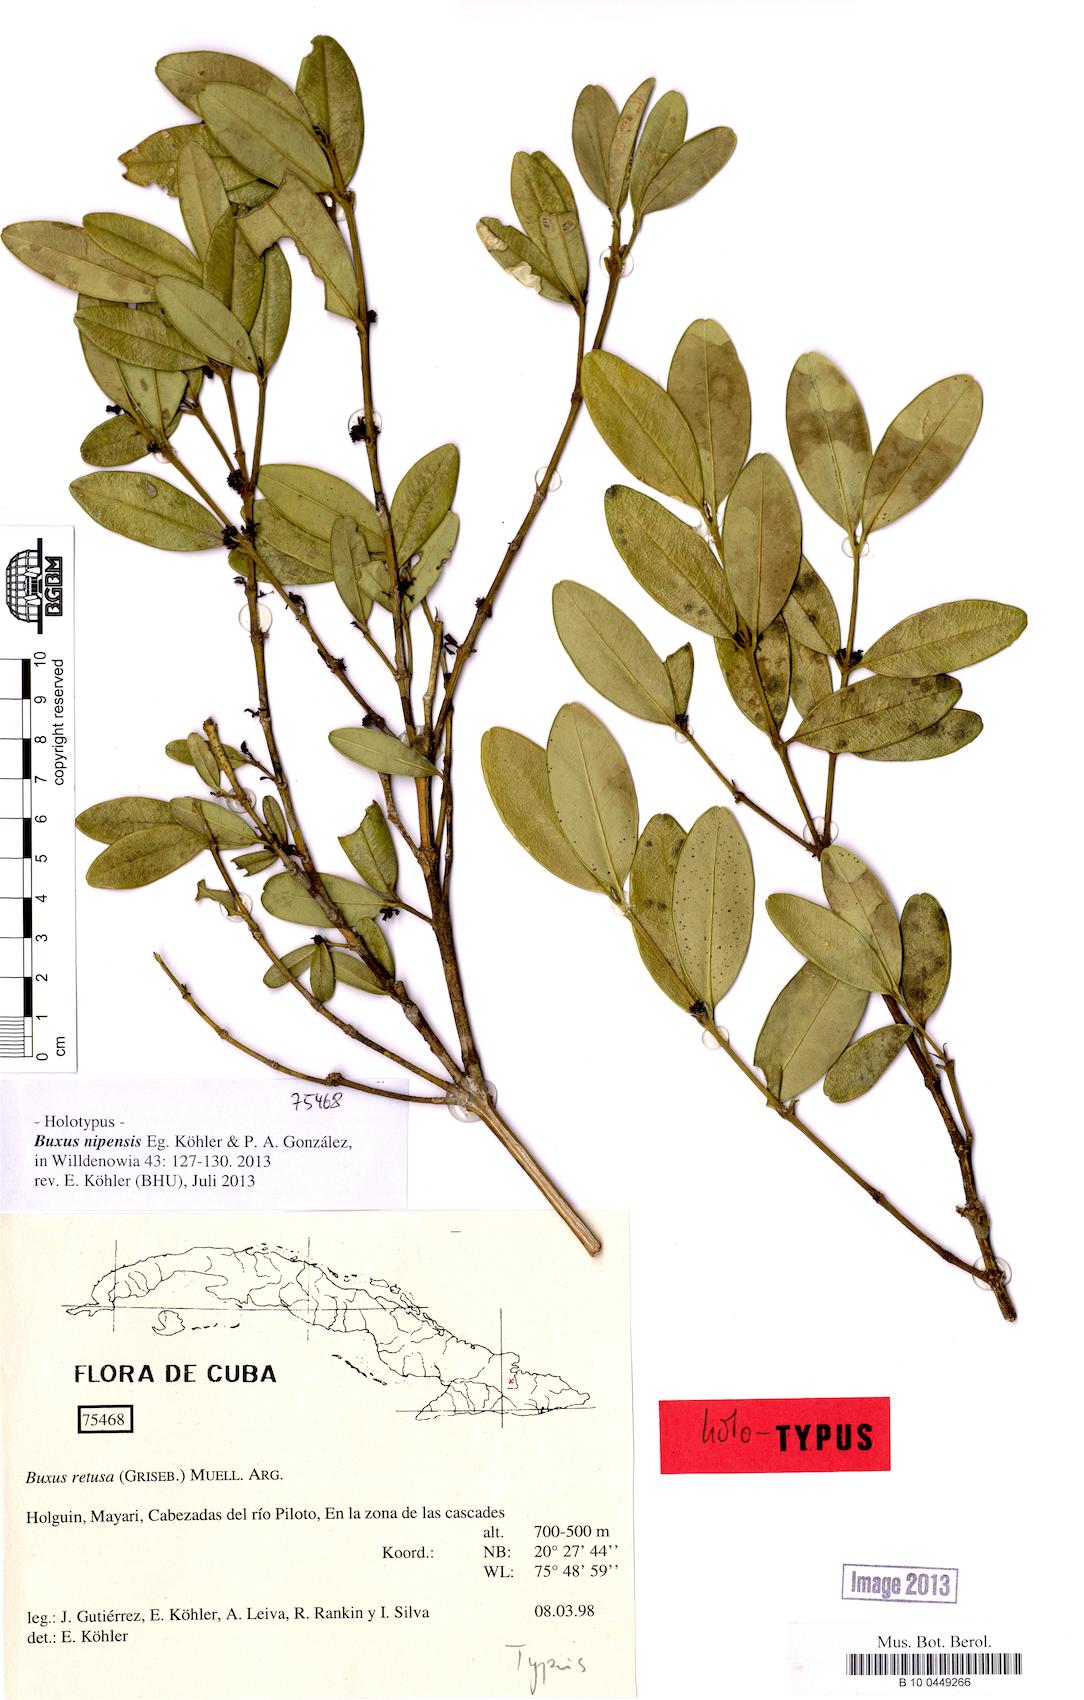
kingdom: Plantae
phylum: Tracheophyta
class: Magnoliopsida
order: Buxales
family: Buxaceae
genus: Buxus
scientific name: Buxus retusa
